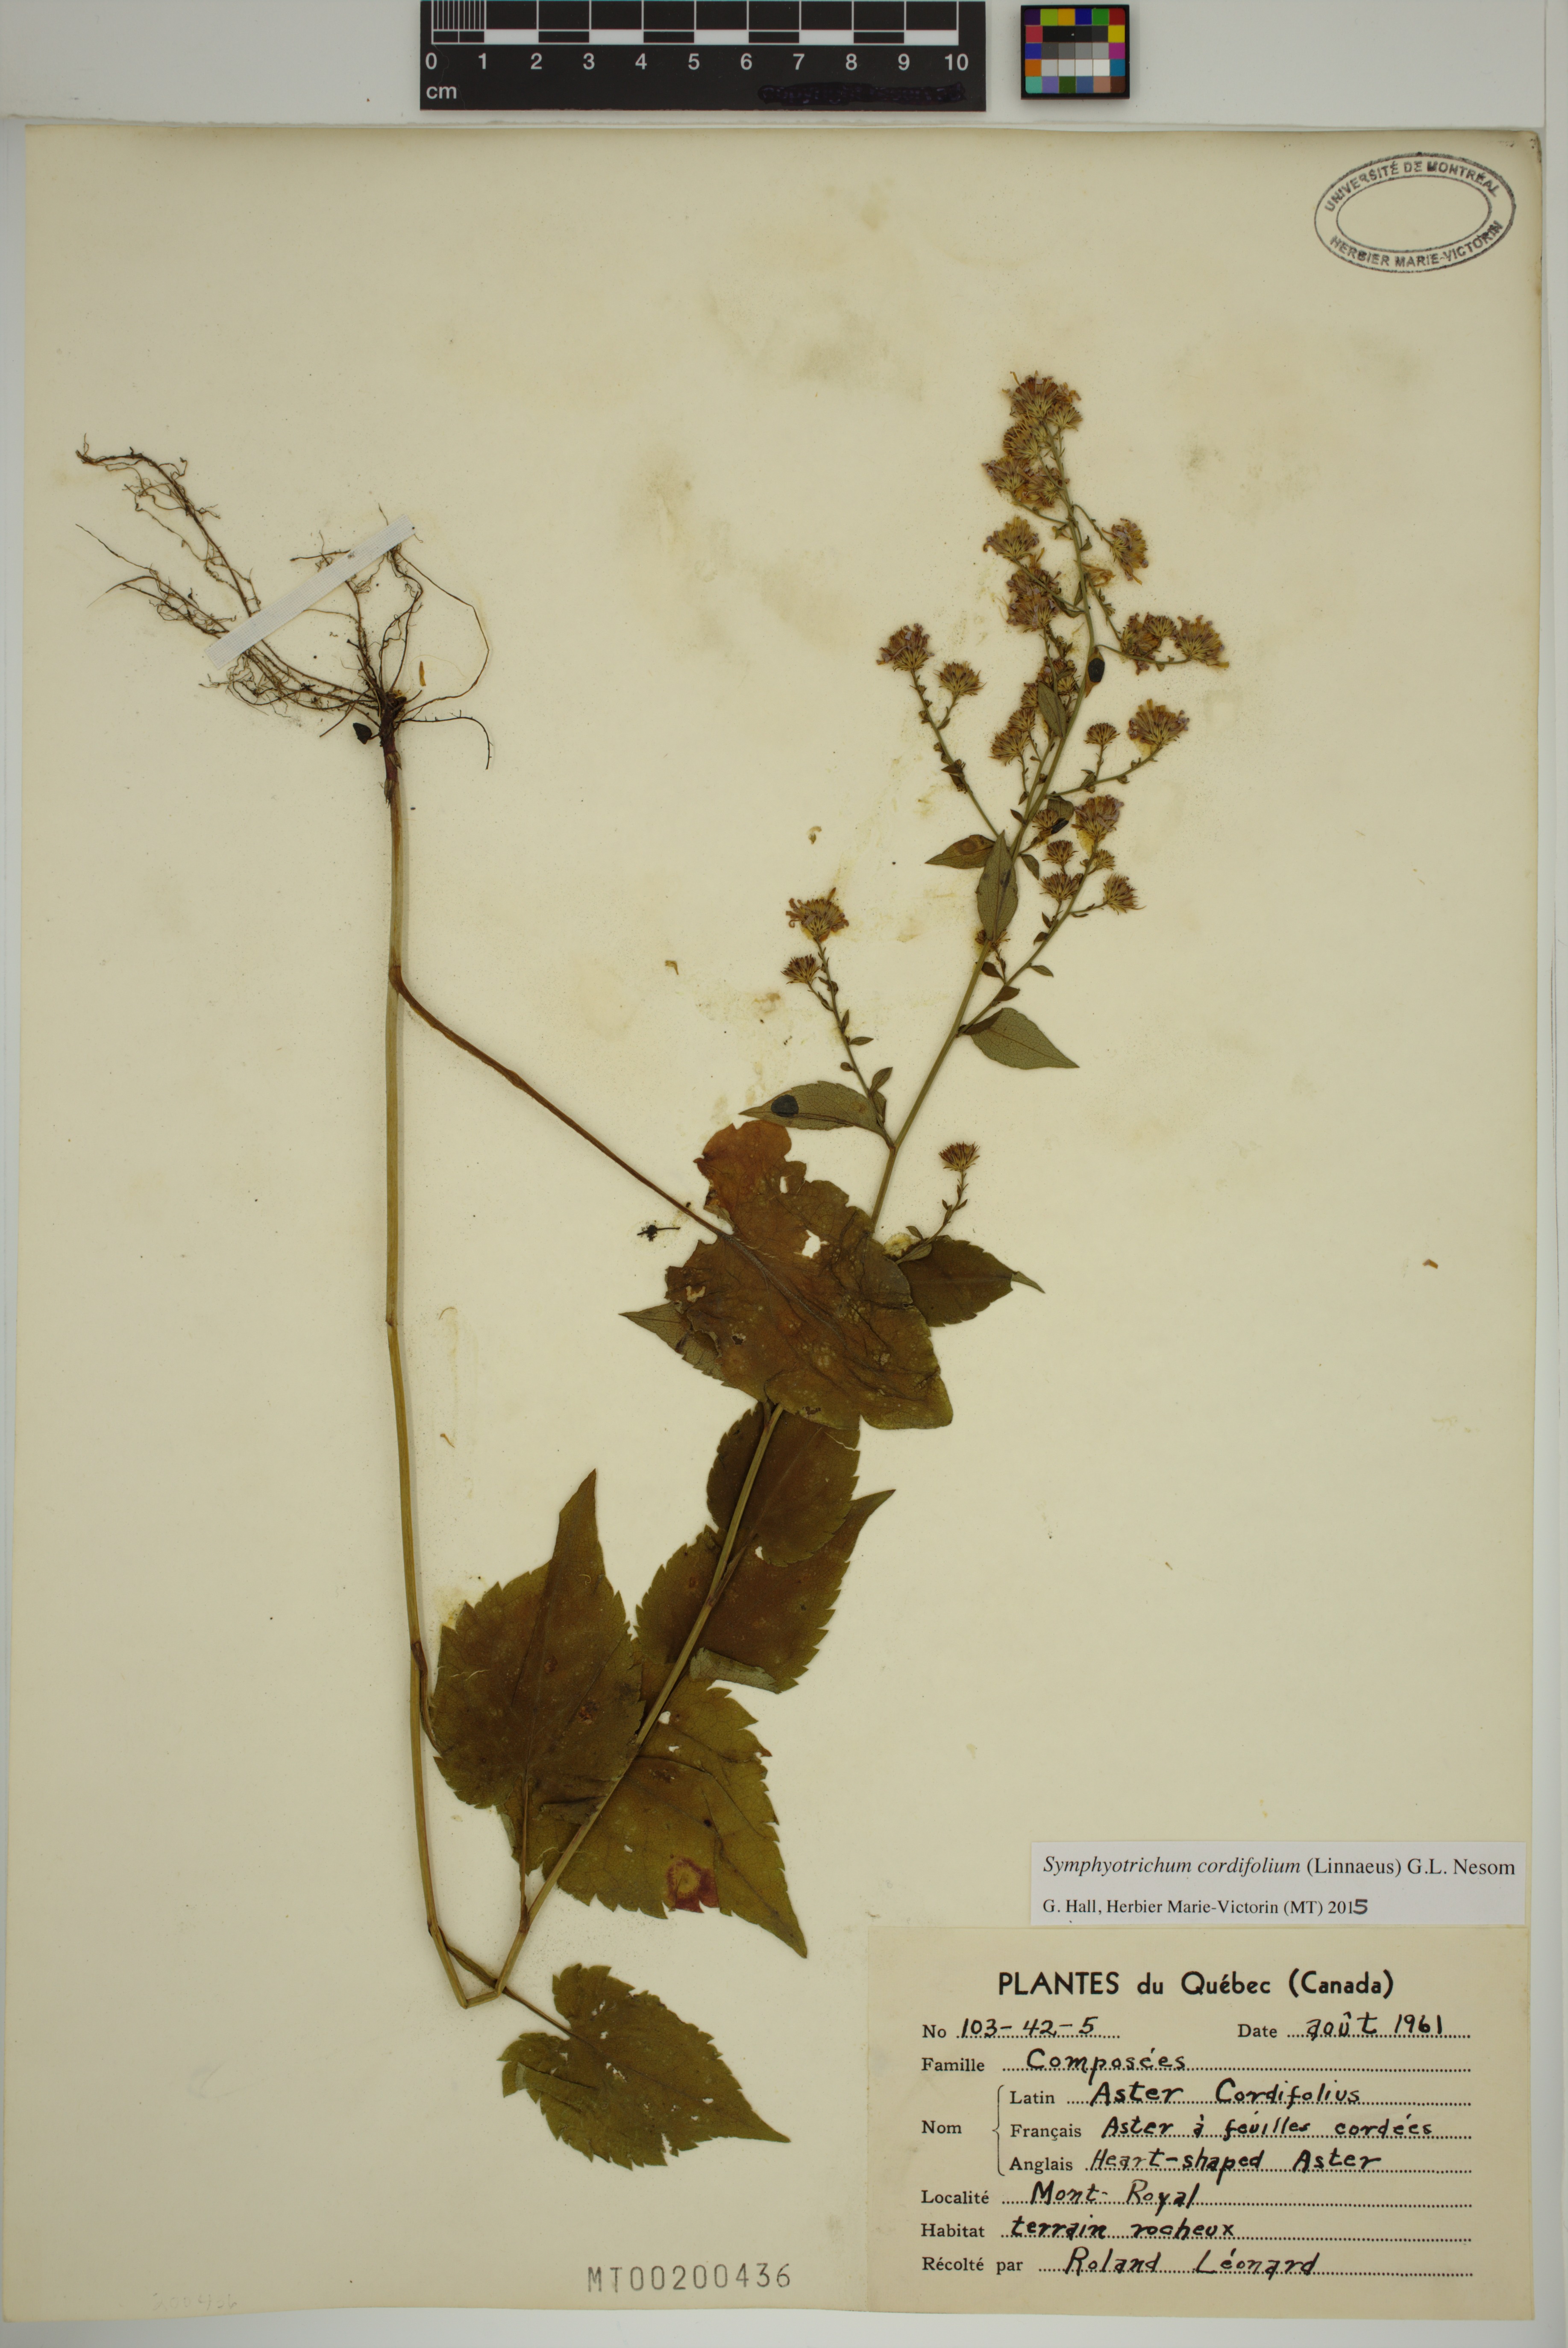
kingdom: Plantae
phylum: Tracheophyta
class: Magnoliopsida
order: Asterales
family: Asteraceae
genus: Symphyotrichum
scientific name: Symphyotrichum cordifolium
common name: Beeweed
